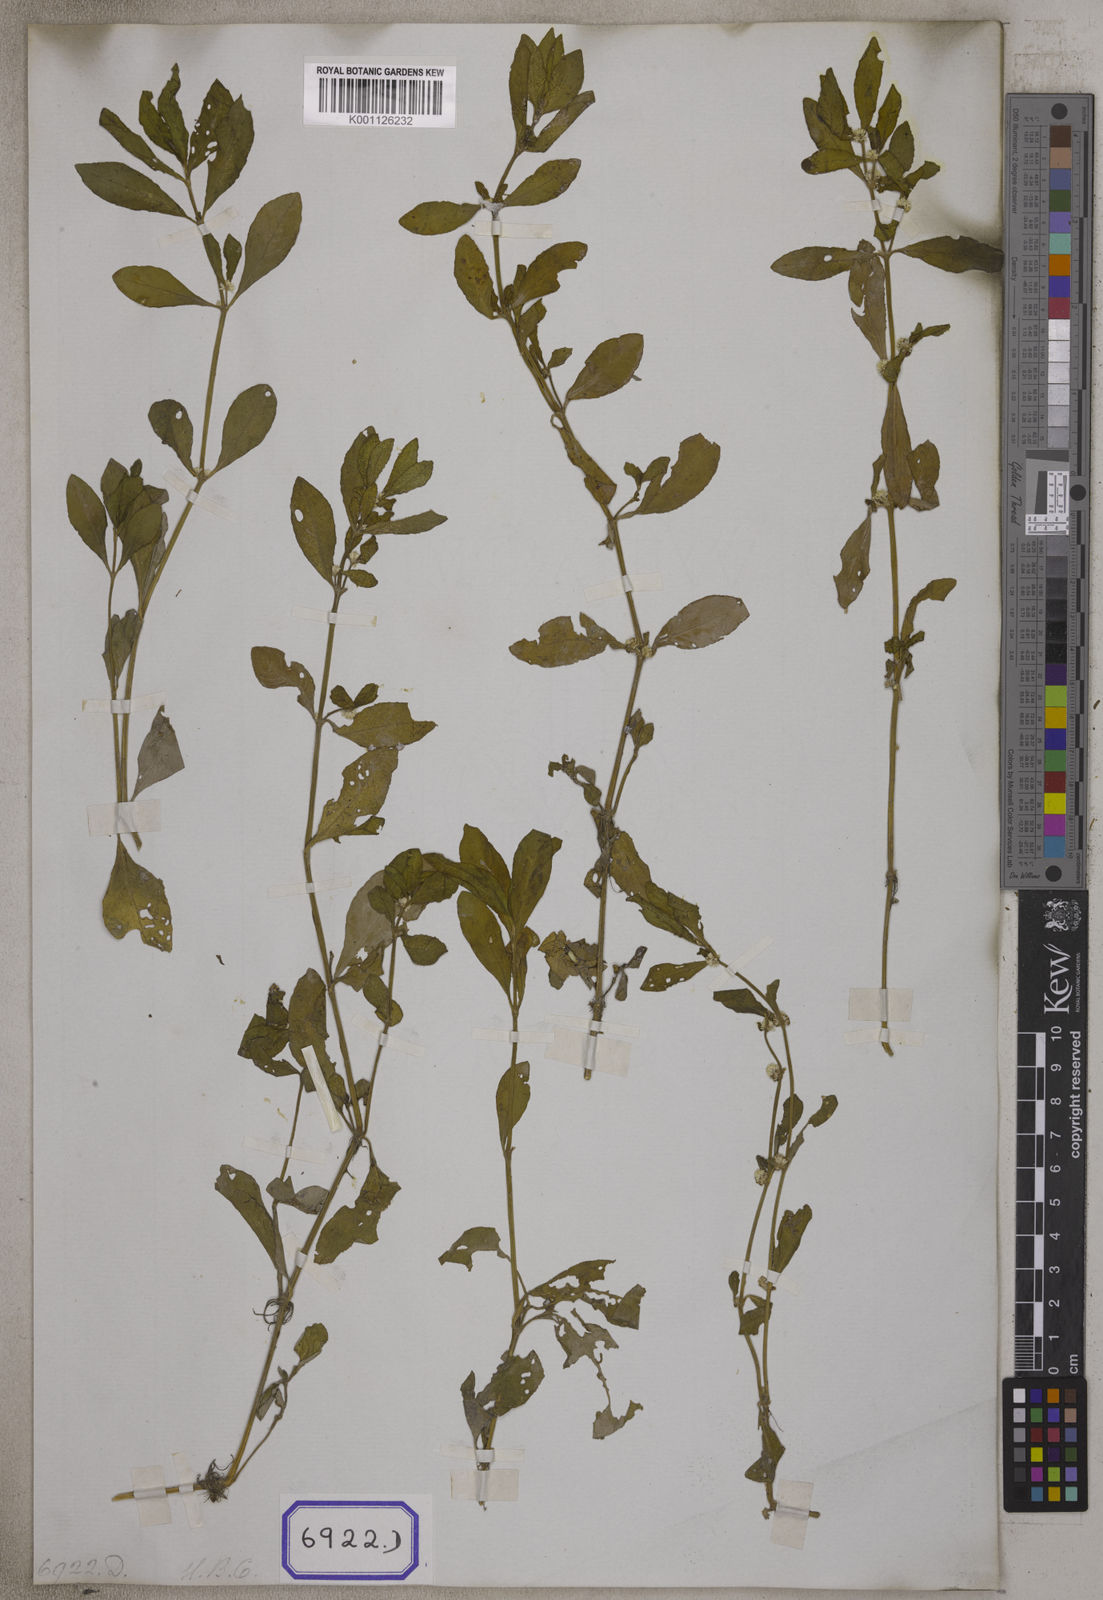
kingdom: Plantae
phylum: Tracheophyta
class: Magnoliopsida
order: Caryophyllales
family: Amaranthaceae
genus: Alternanthera
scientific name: Alternanthera
